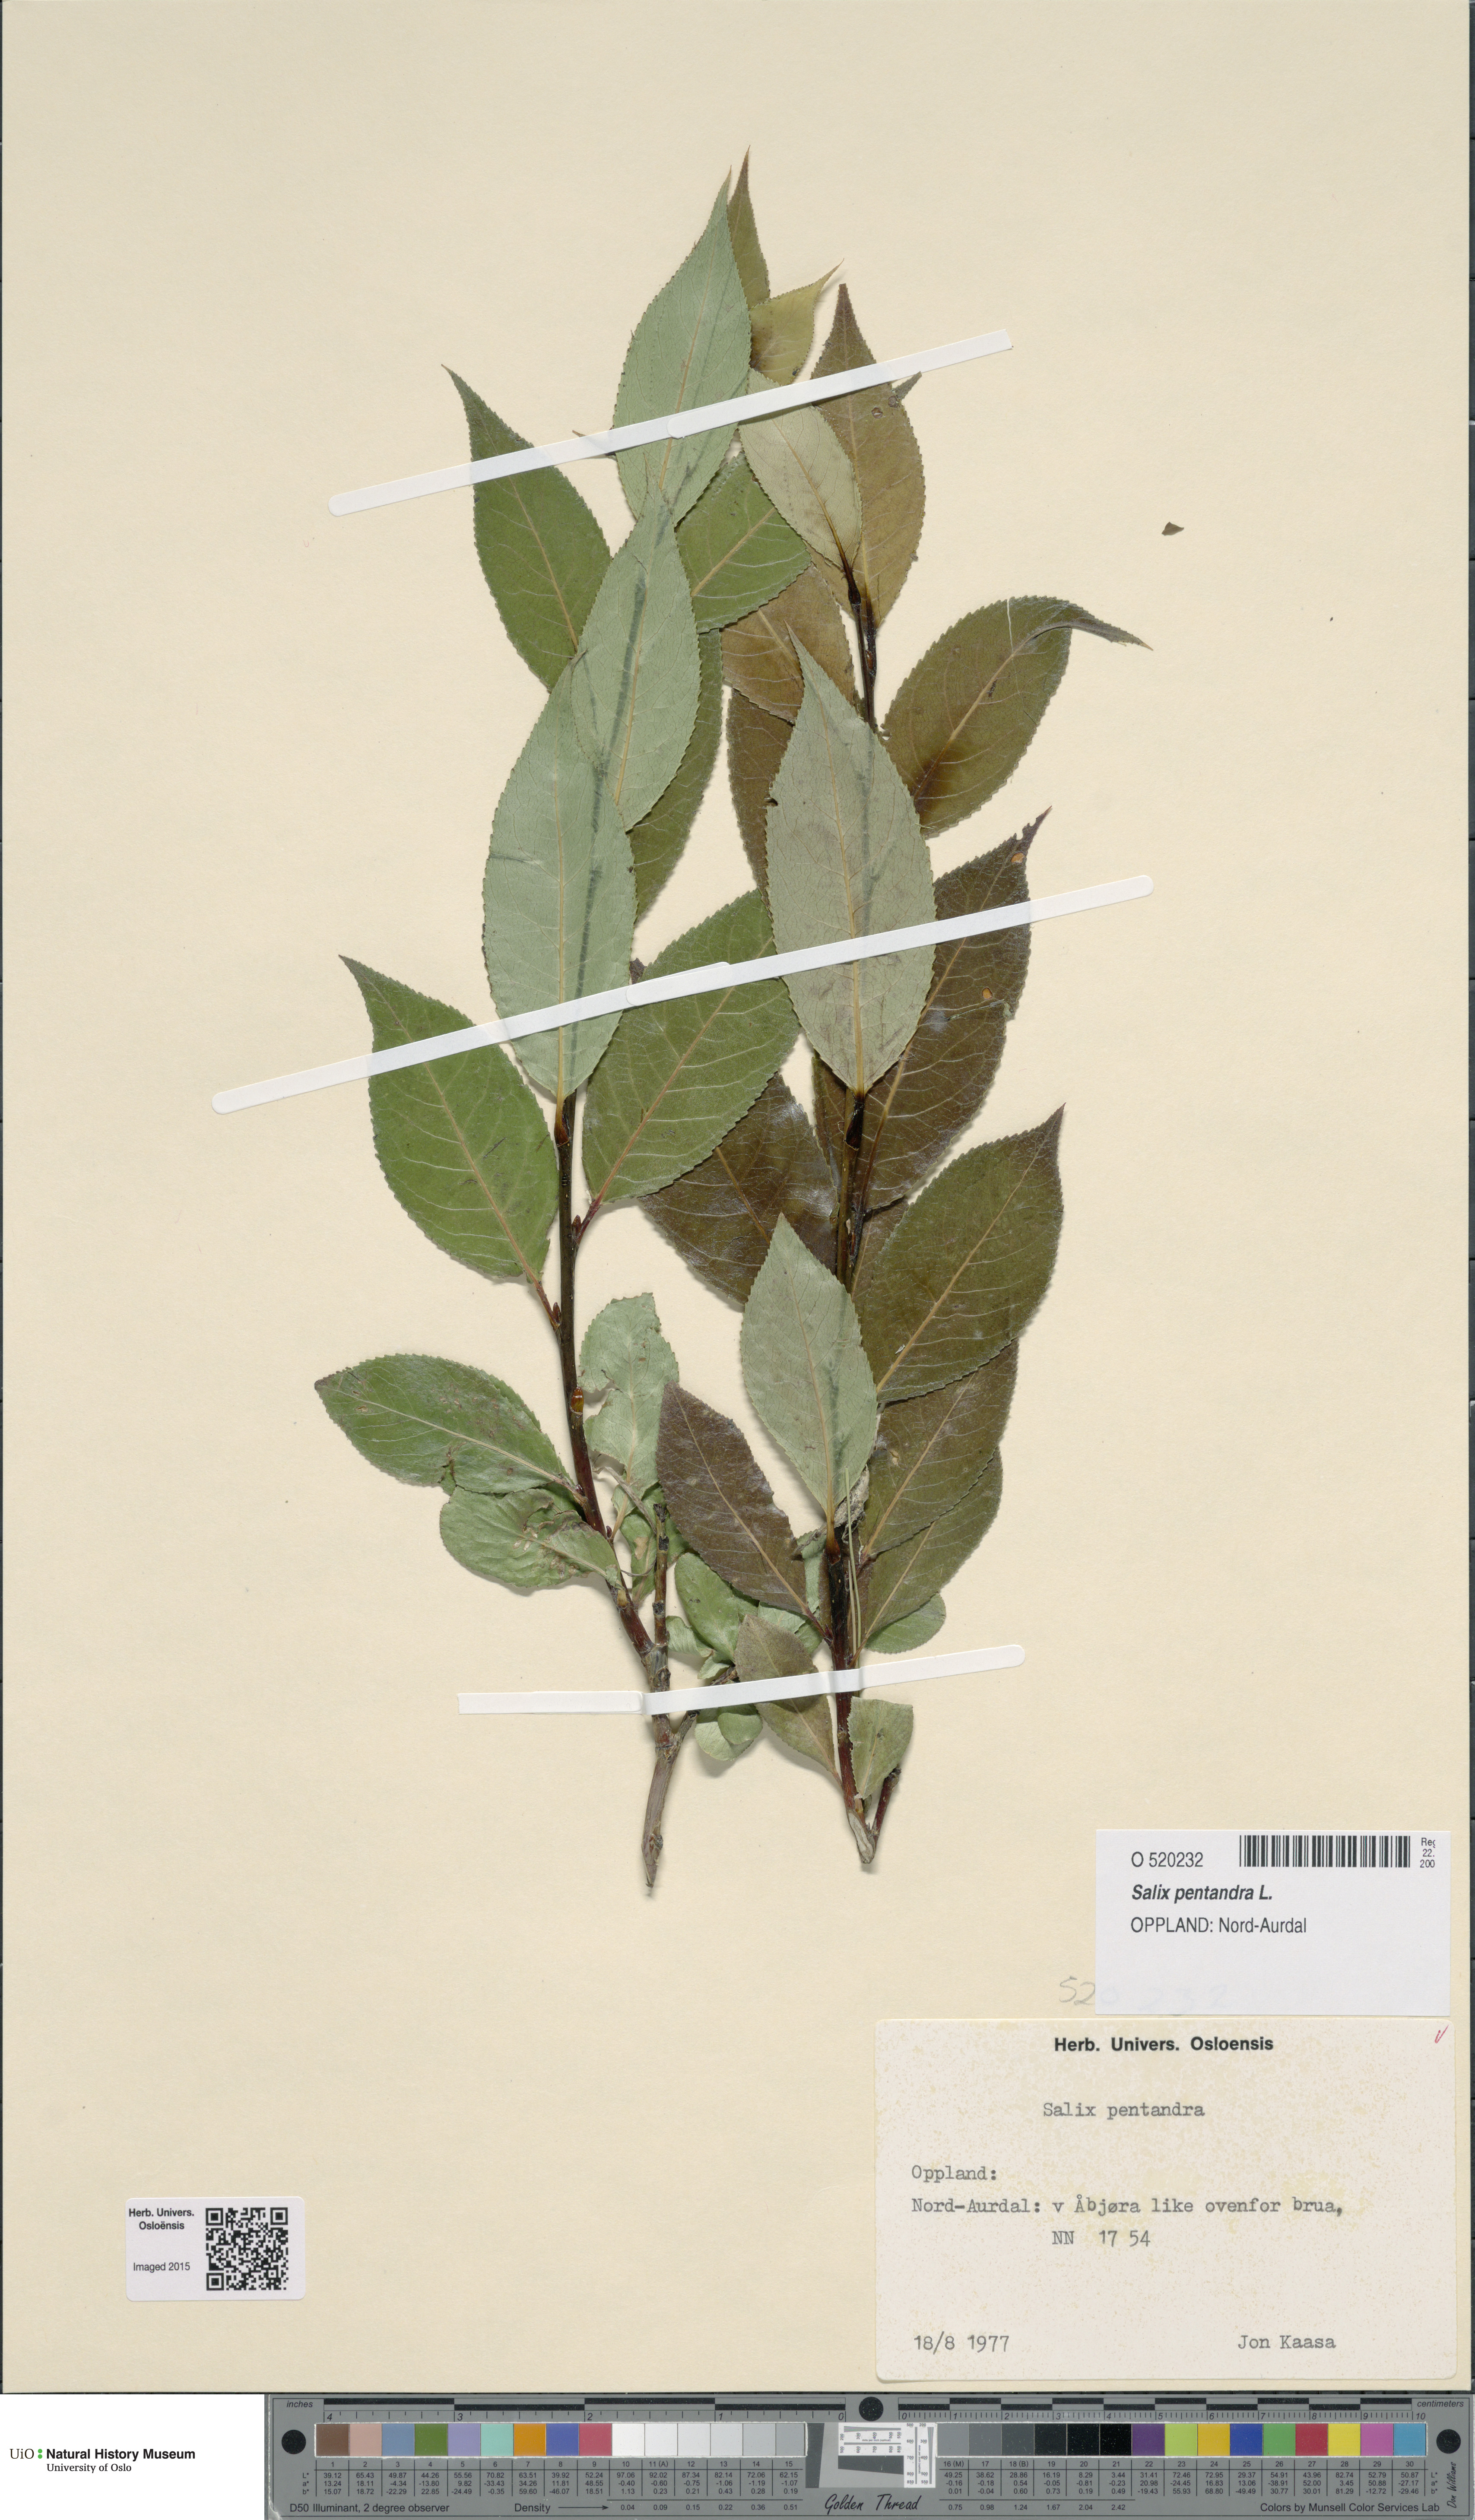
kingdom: Plantae
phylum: Tracheophyta
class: Magnoliopsida
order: Malpighiales
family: Salicaceae
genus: Salix
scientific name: Salix pentandra
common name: Bay willow
